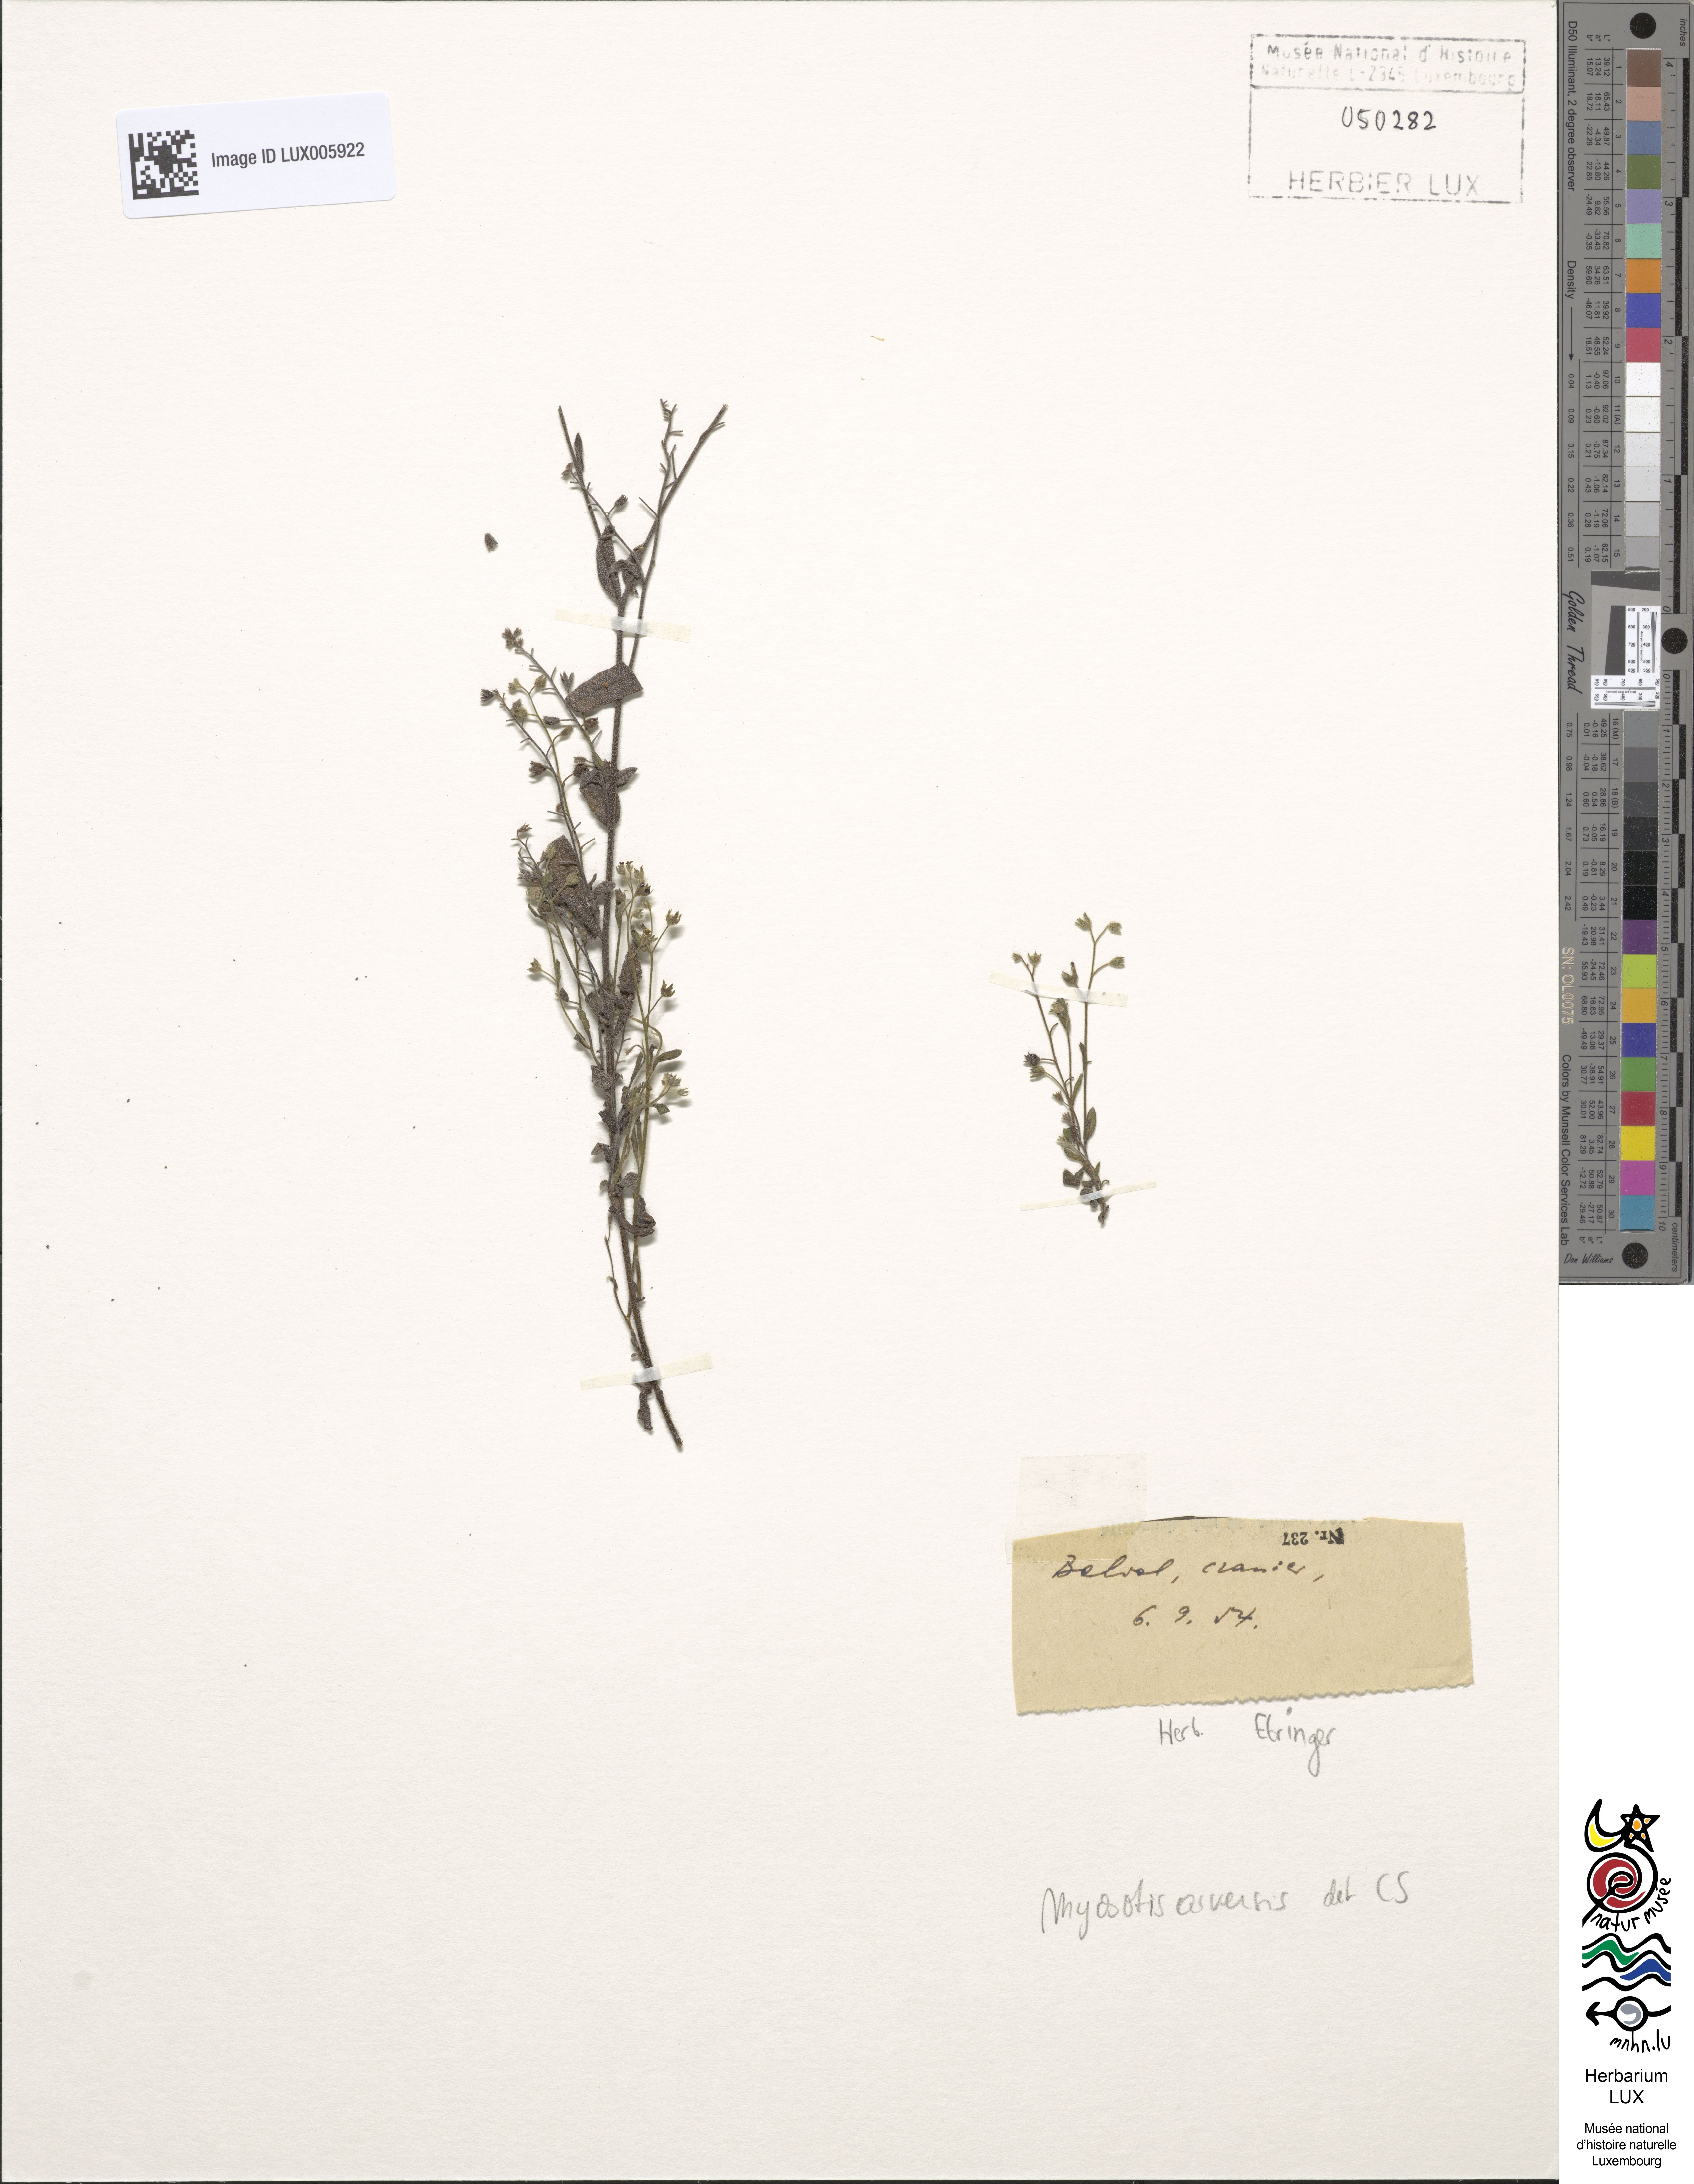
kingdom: Plantae
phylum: Tracheophyta
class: Magnoliopsida
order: Boraginales
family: Boraginaceae
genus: Myosotis
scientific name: Myosotis arvensis
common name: Field forget-me-not
